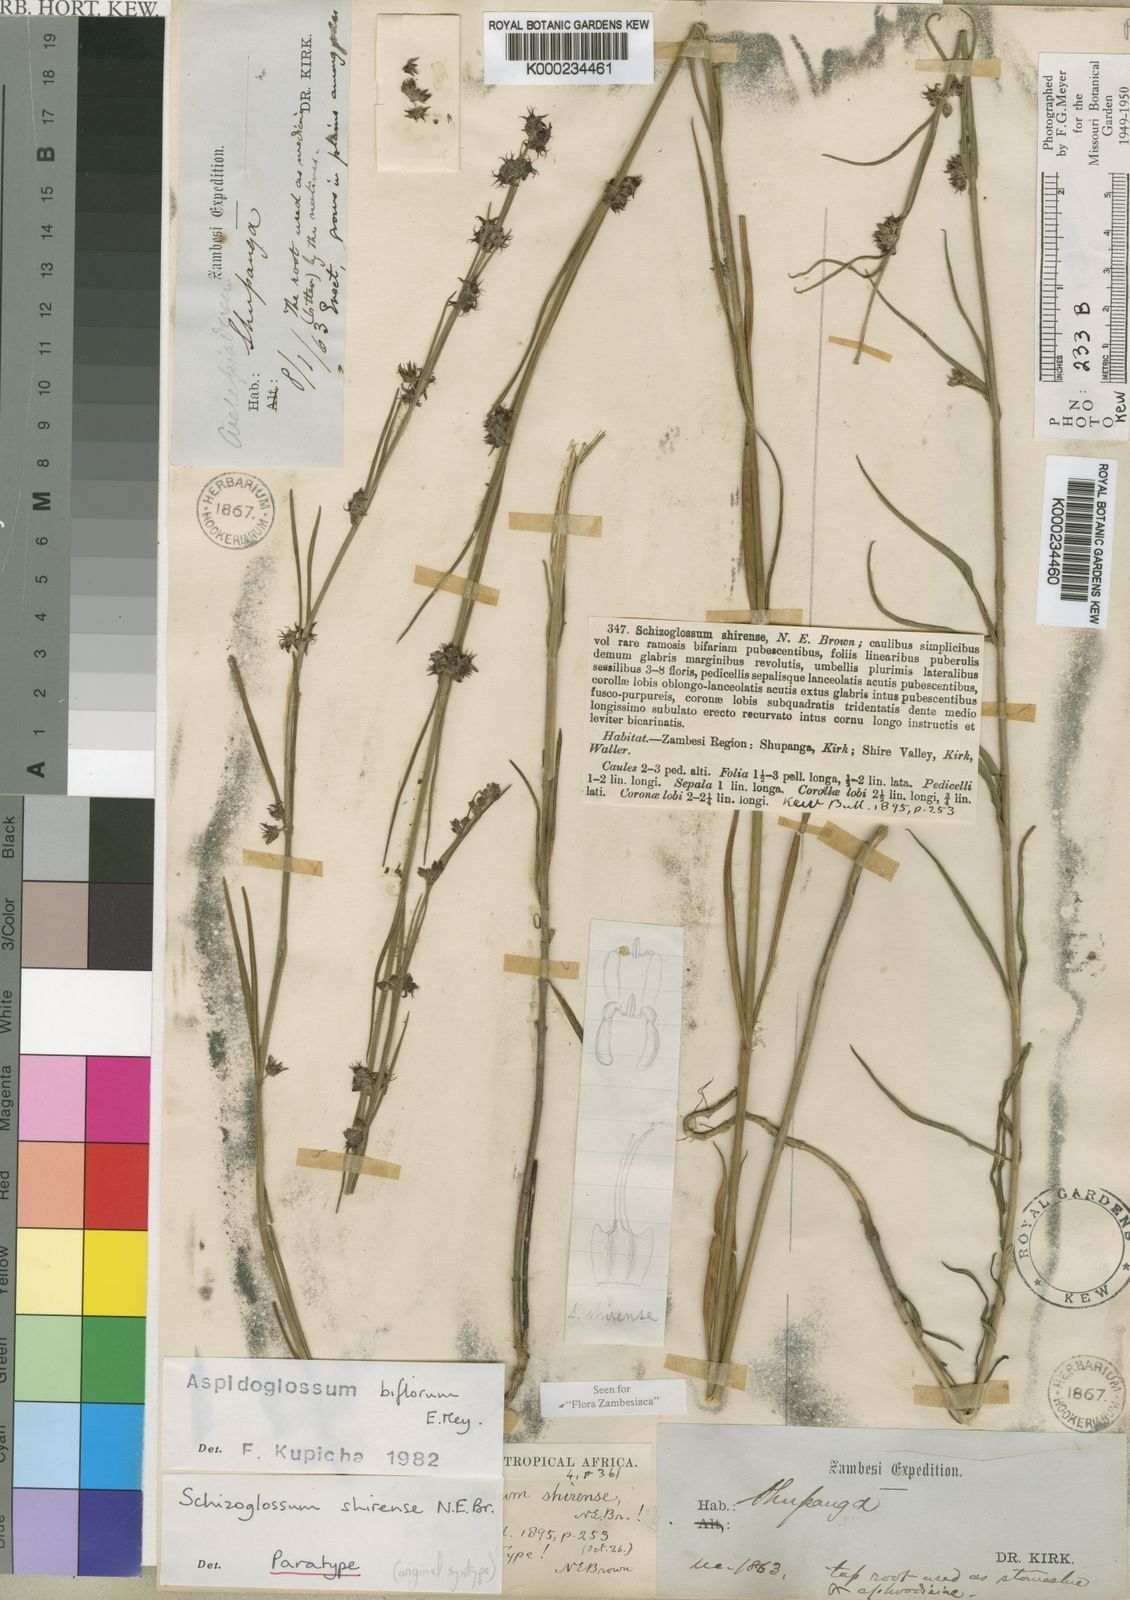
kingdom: Plantae
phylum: Tracheophyta
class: Magnoliopsida
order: Gentianales
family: Apocynaceae
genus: Aspidoglossum
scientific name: Aspidoglossum biflorum
